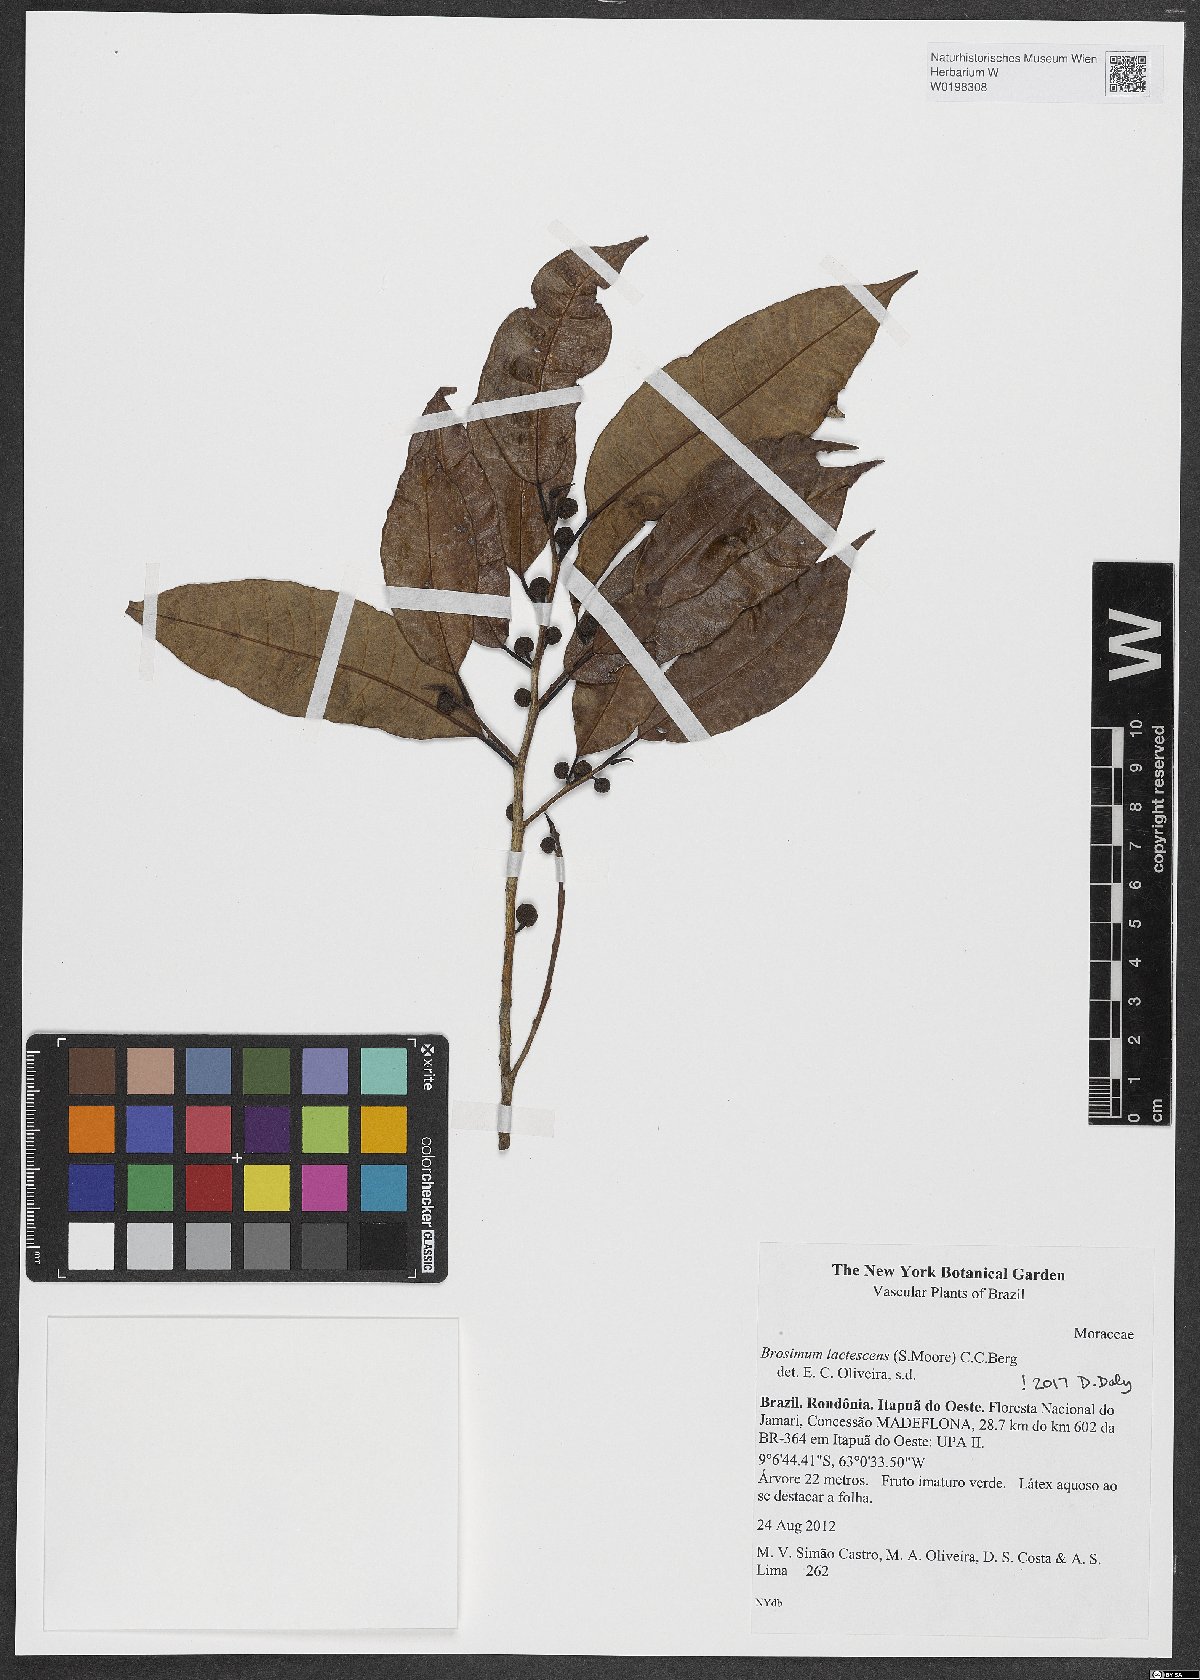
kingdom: Plantae
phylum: Tracheophyta
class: Magnoliopsida
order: Rosales
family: Moraceae
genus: Brosimum
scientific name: Brosimum lactescens
